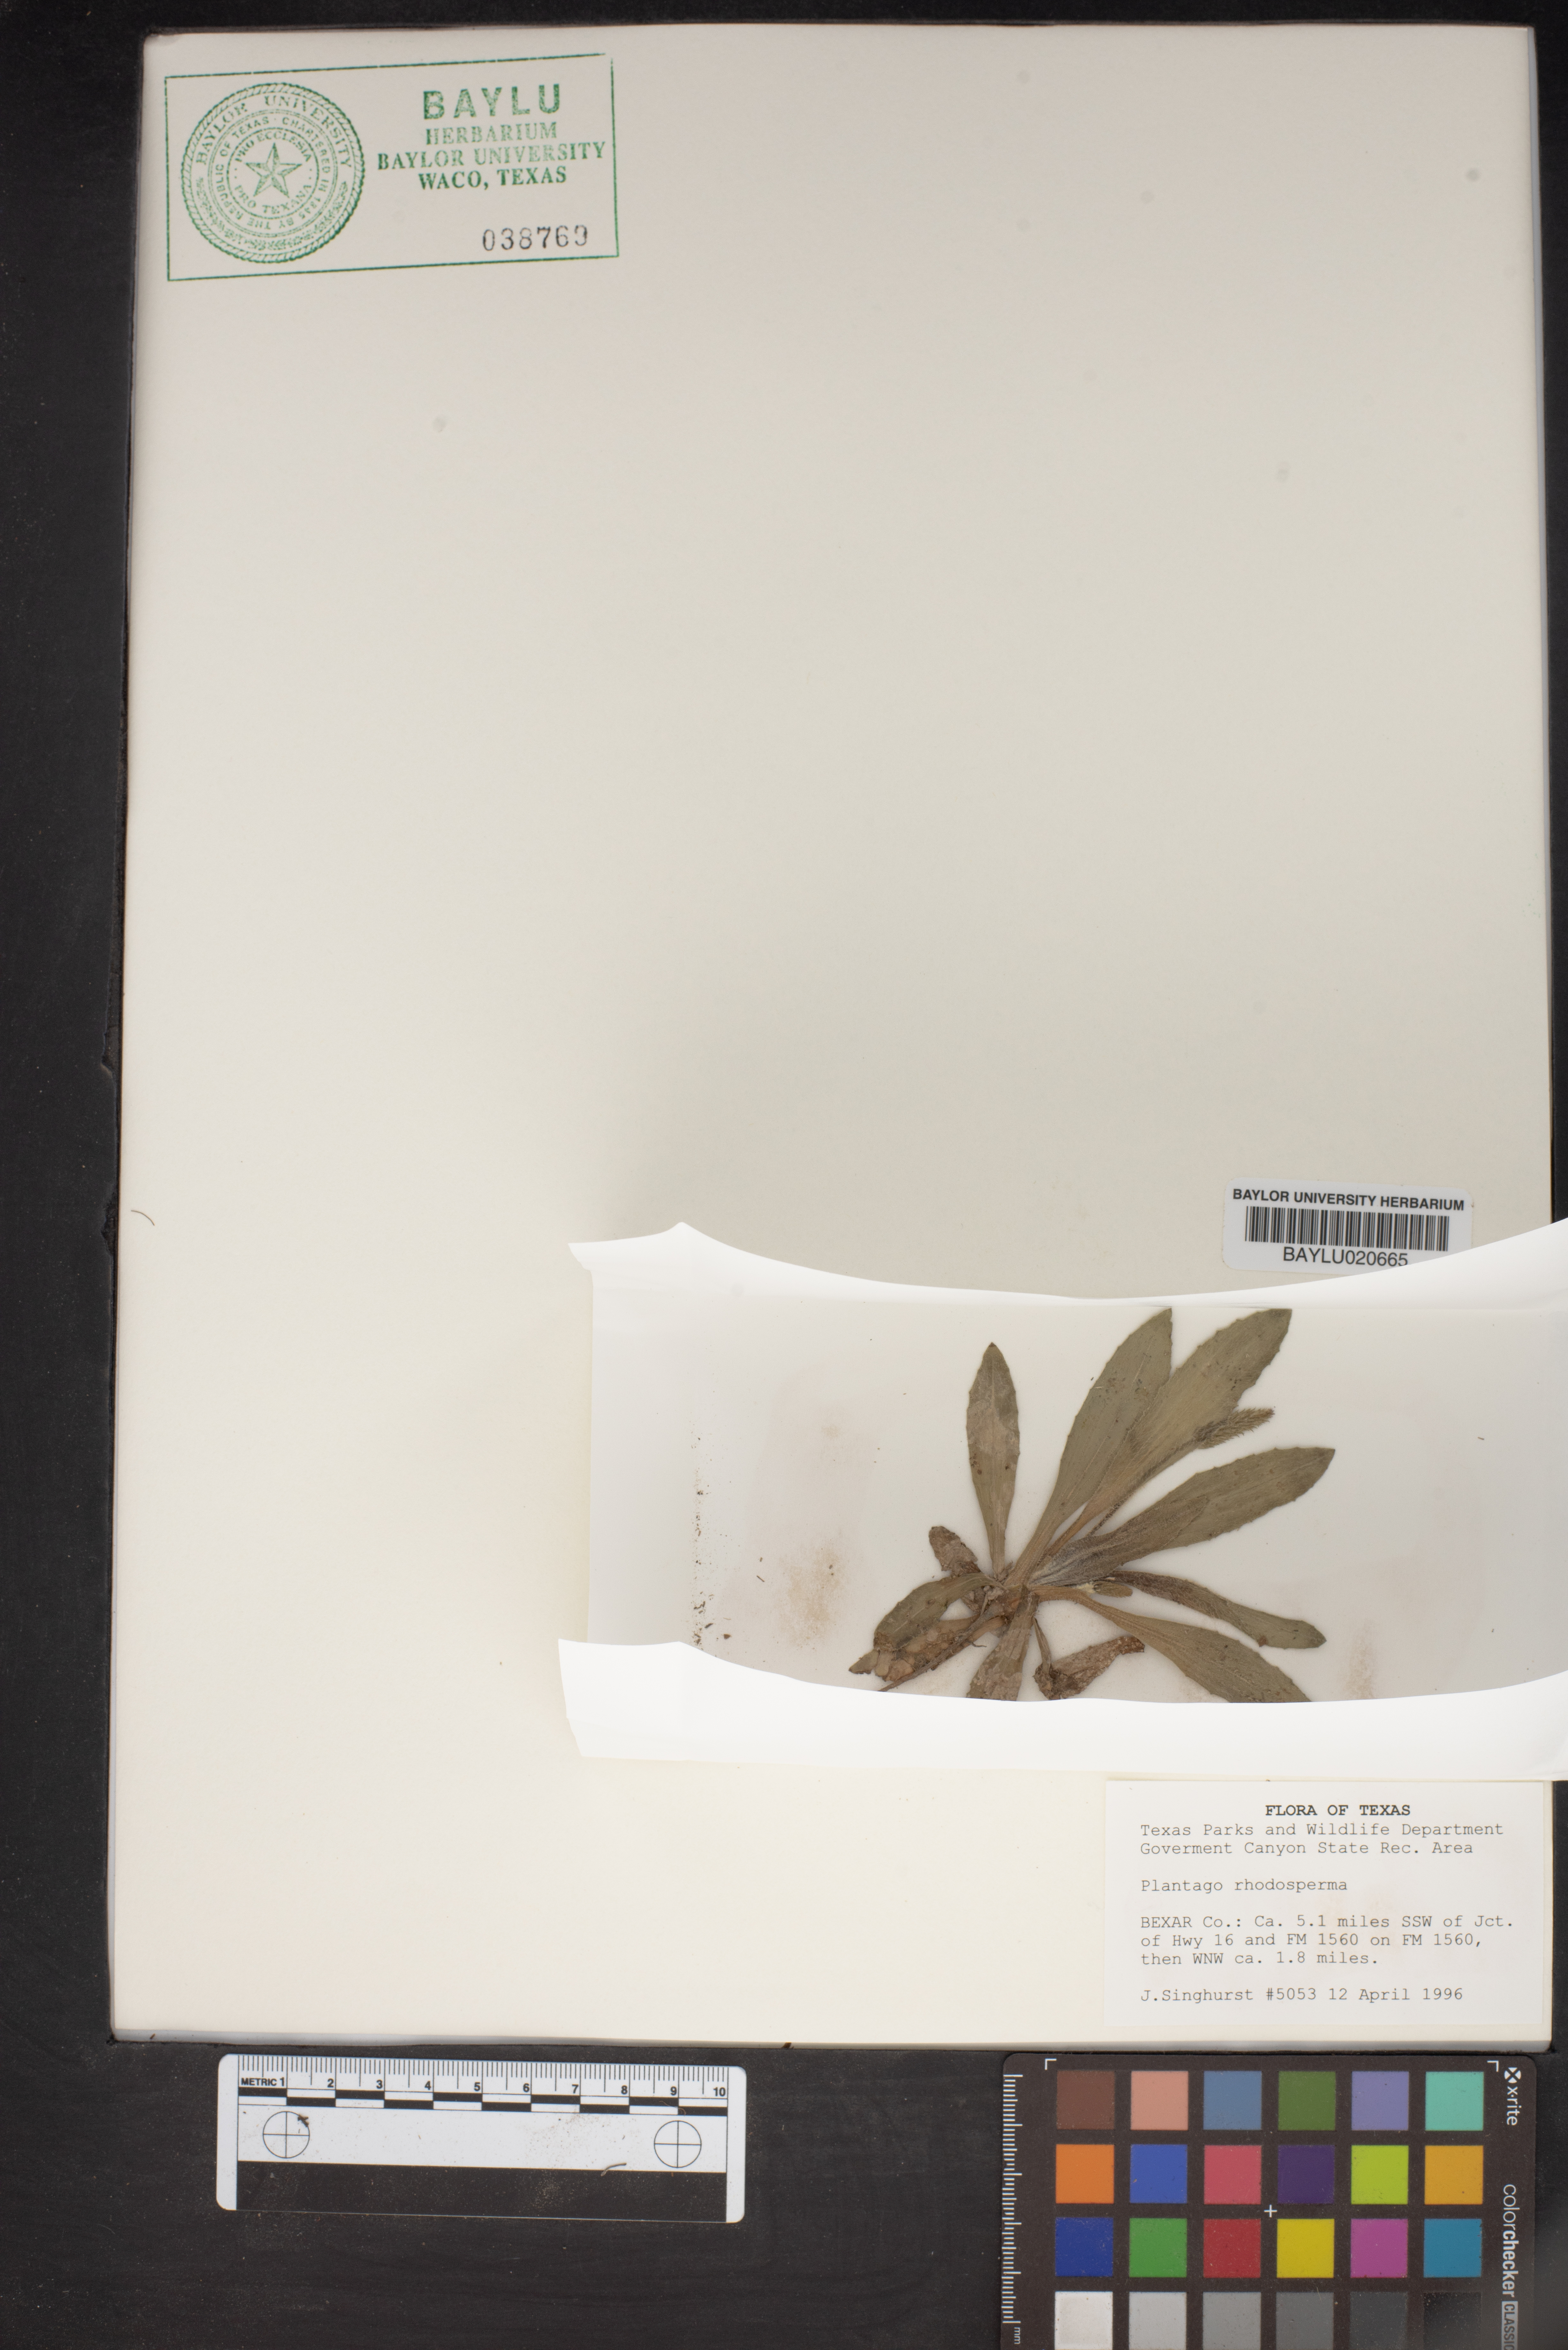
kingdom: Plantae
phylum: Tracheophyta
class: Magnoliopsida
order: Lamiales
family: Plantaginaceae
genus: Plantago
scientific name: Plantago rhodosperma
